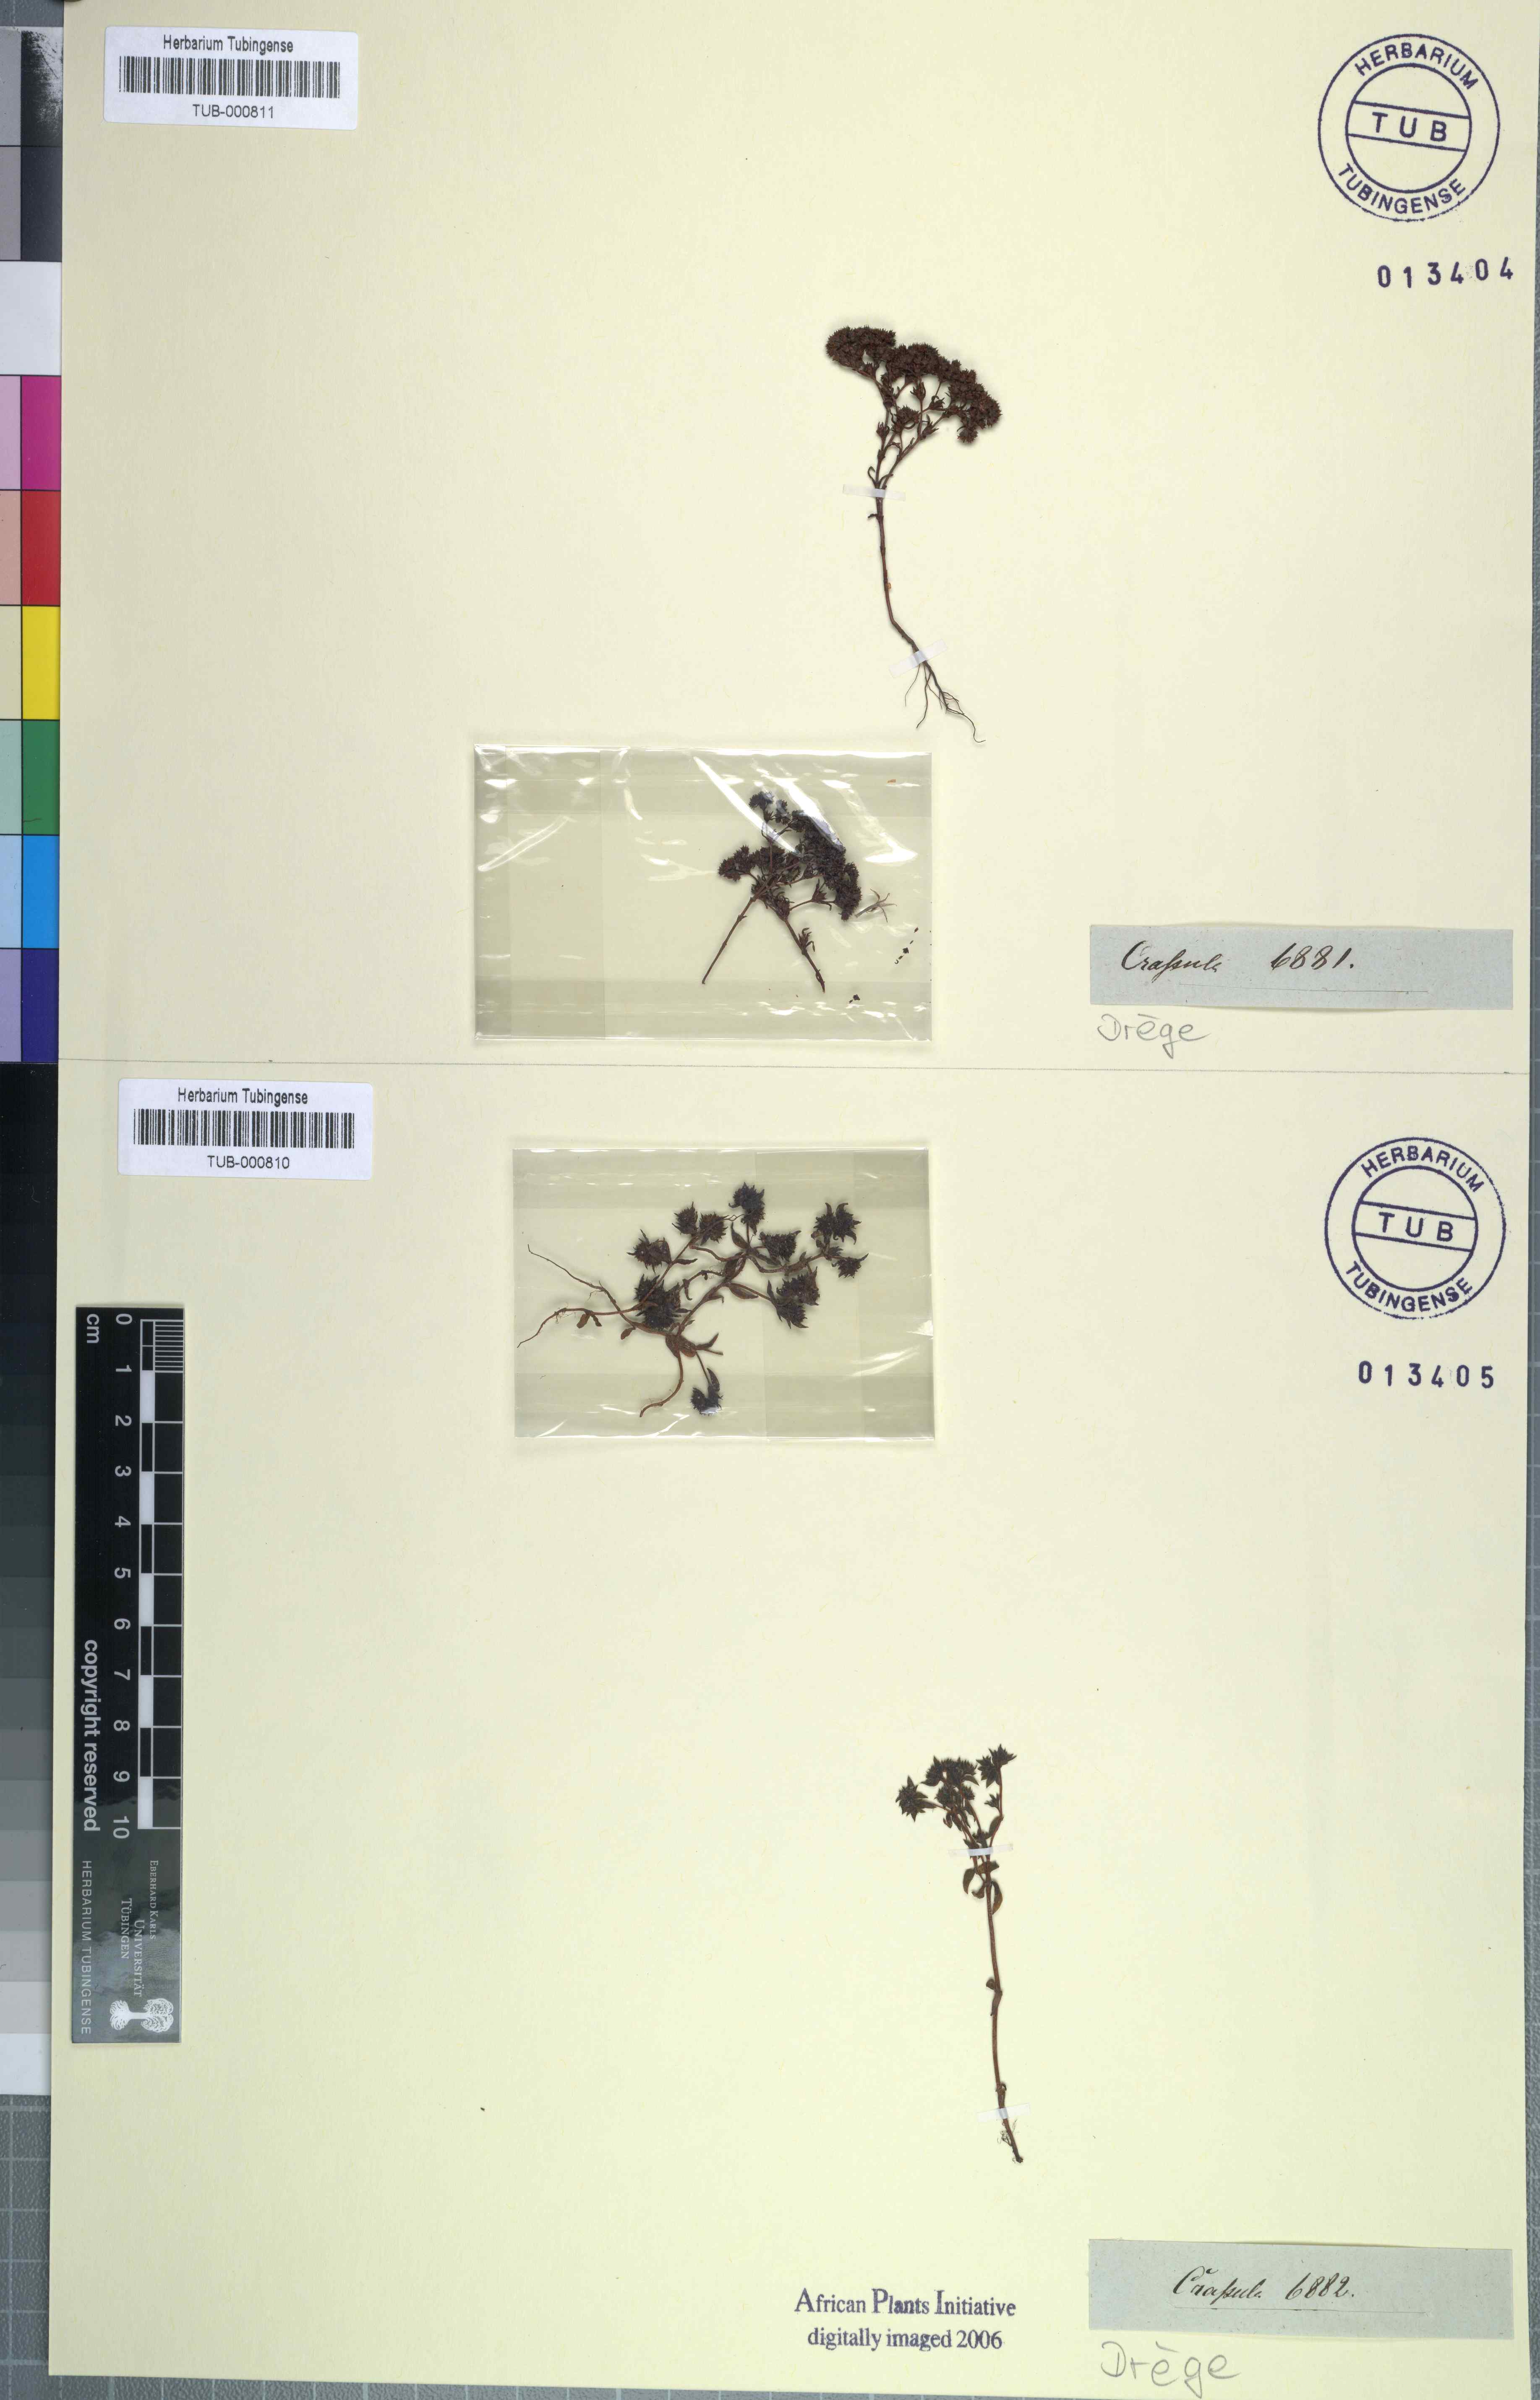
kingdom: Plantae
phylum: Tracheophyta
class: Magnoliopsida
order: Saxifragales
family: Crassulaceae
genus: Crassula
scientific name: Crassula
